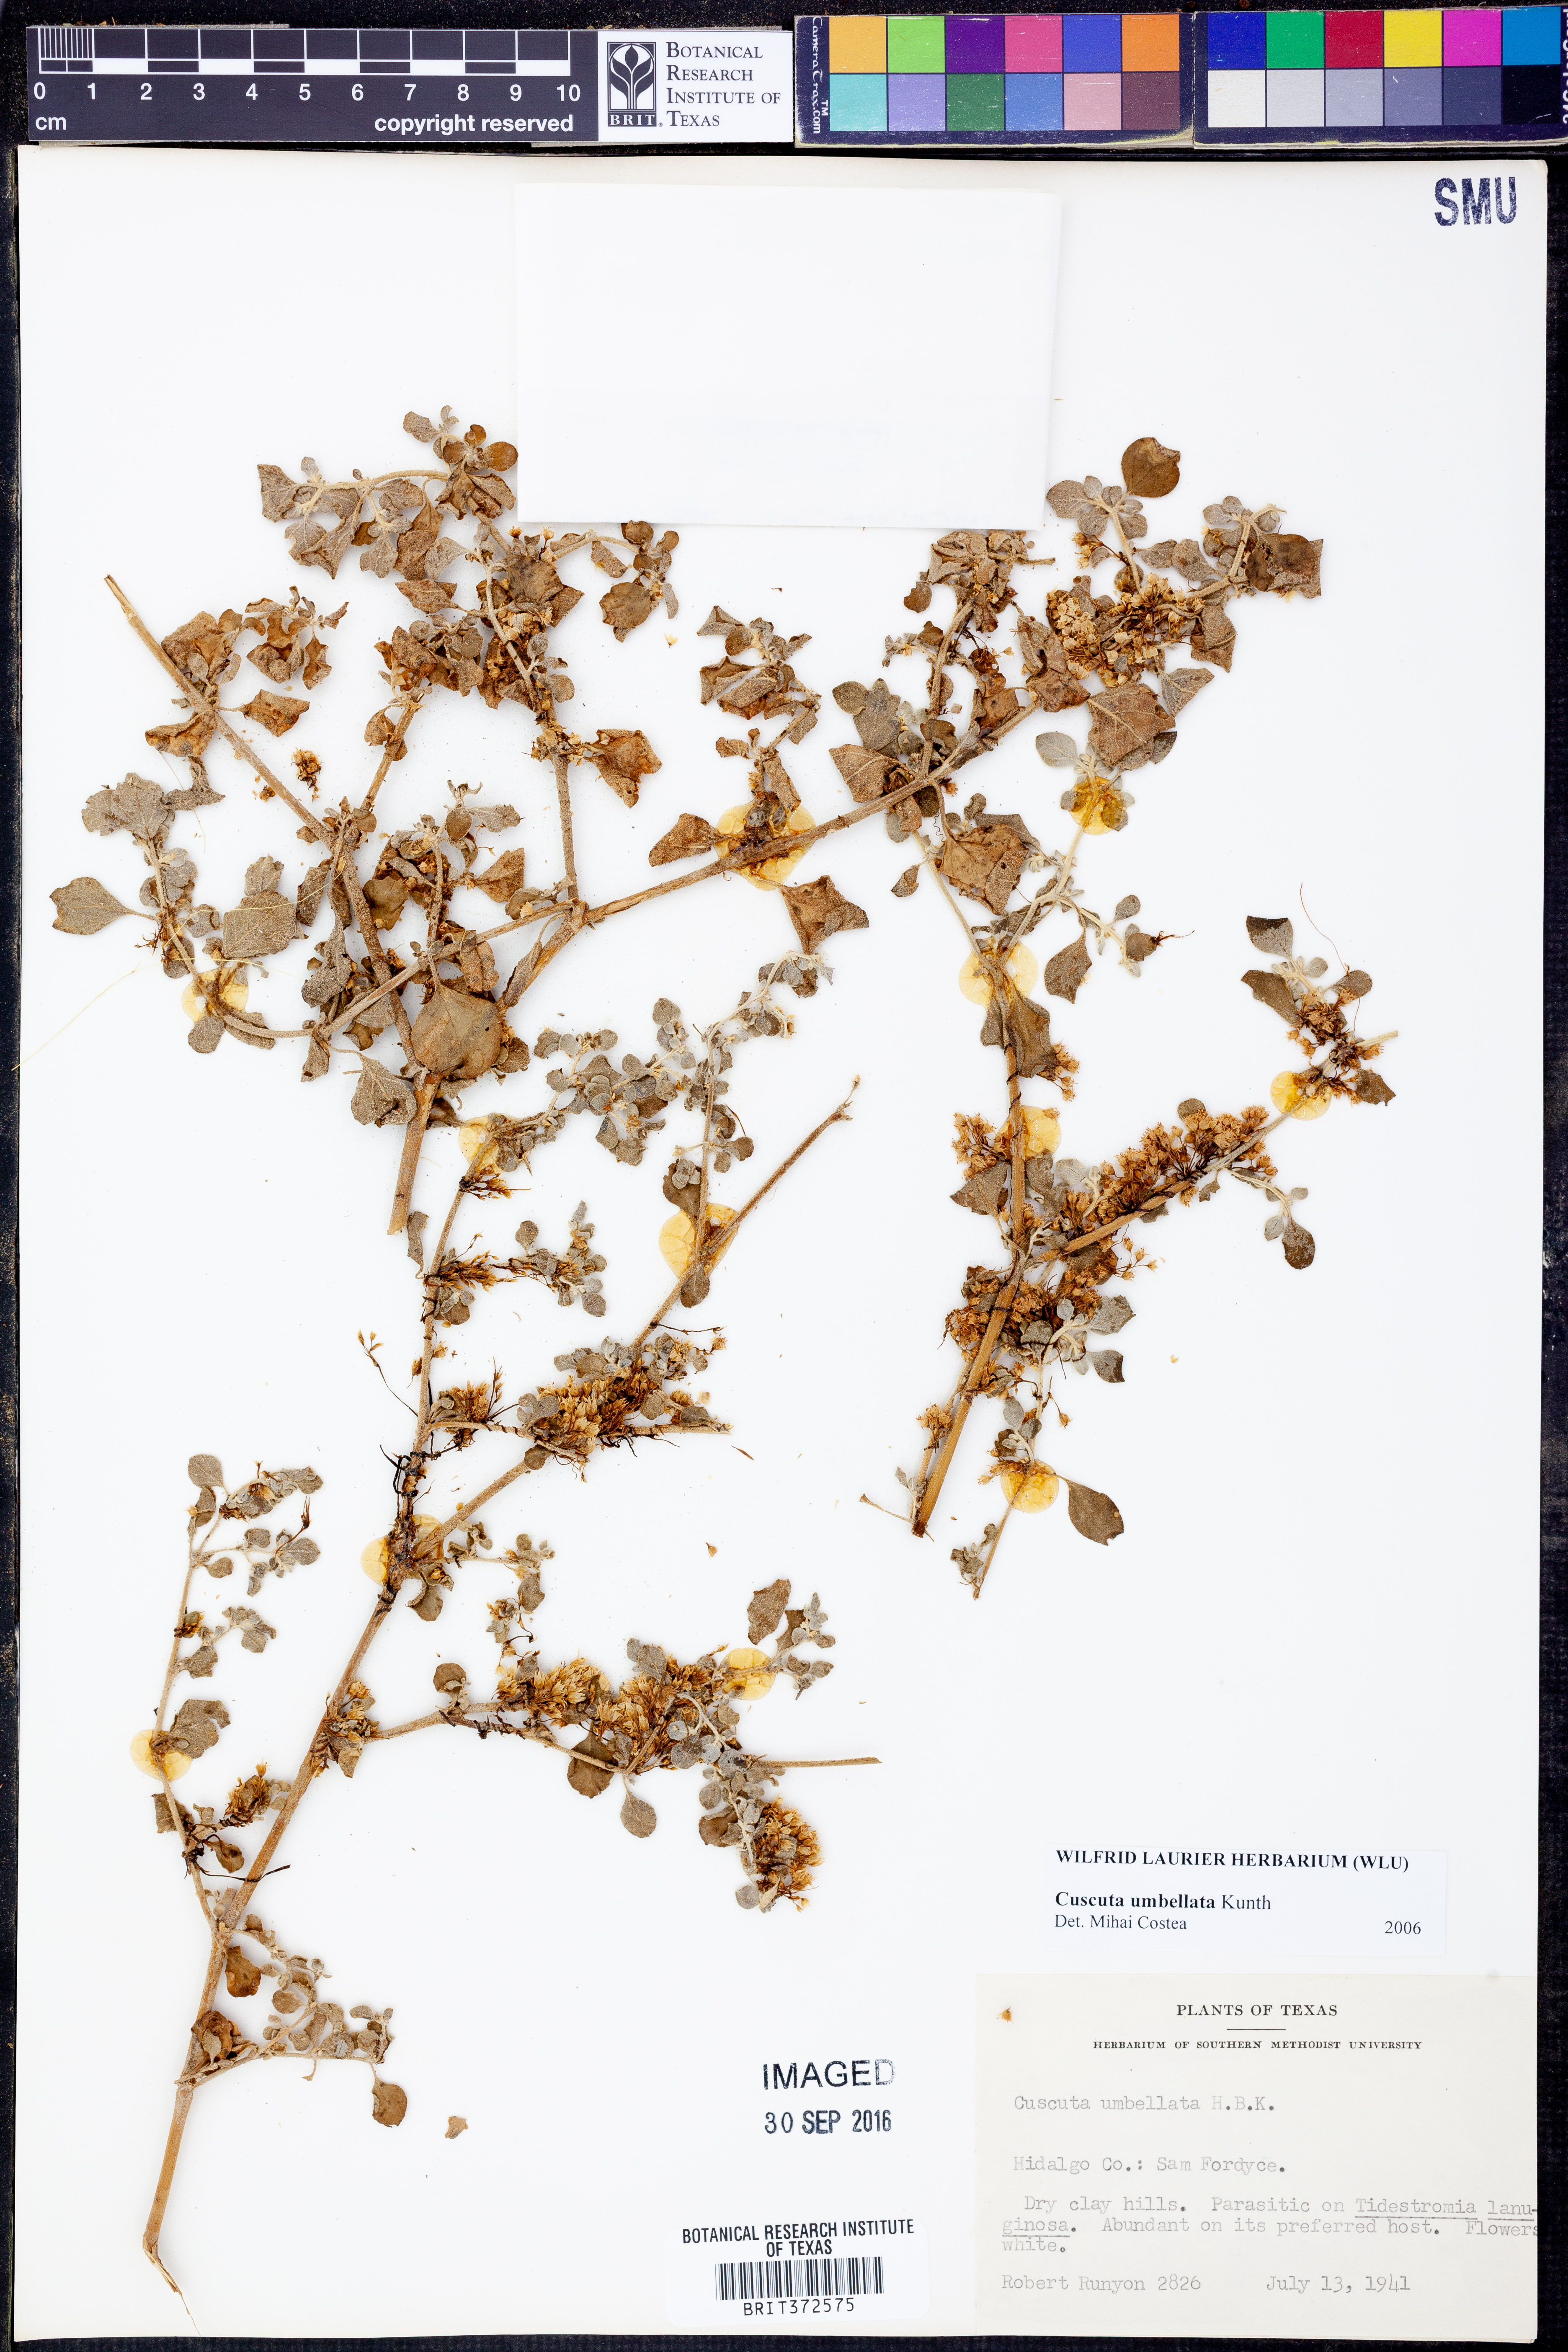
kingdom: Plantae
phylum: Tracheophyta
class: Magnoliopsida
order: Solanales
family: Convolvulaceae
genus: Cuscuta
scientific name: Cuscuta umbellata
